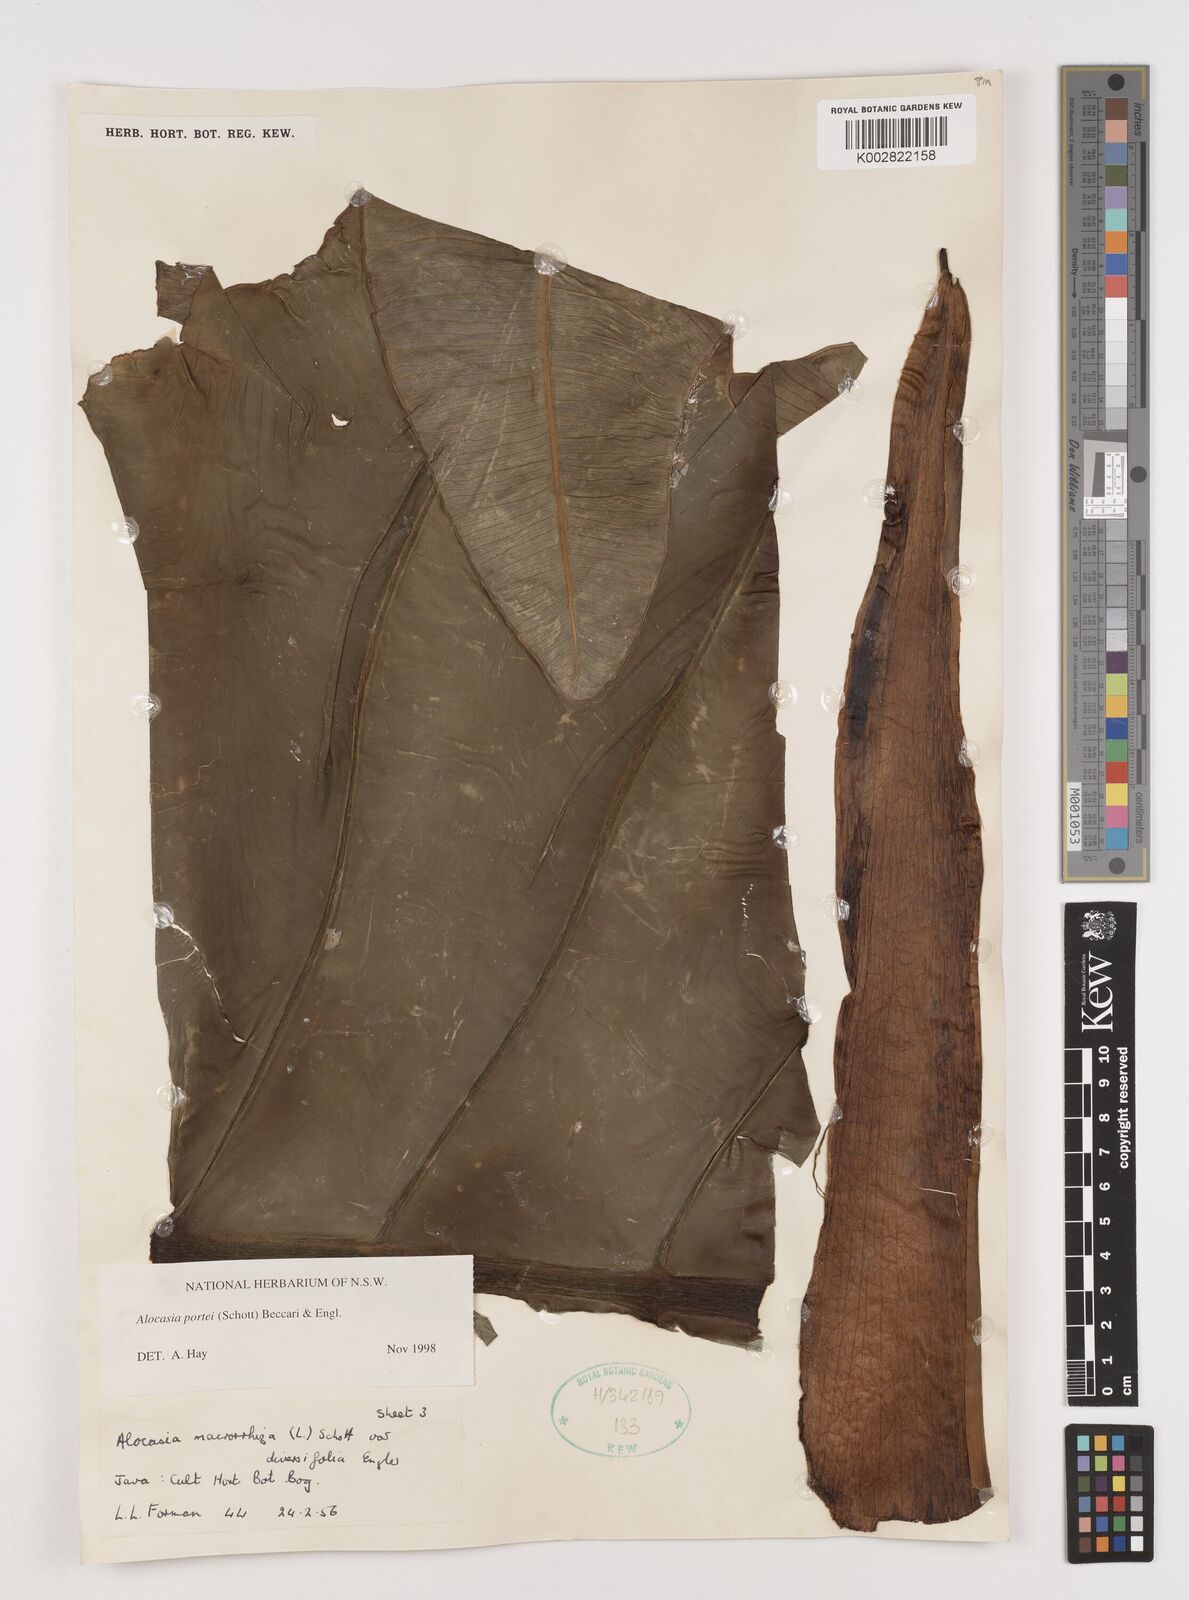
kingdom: Plantae
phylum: Tracheophyta
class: Liliopsida
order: Alismatales
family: Araceae
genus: Alocasia
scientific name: Alocasia portei
